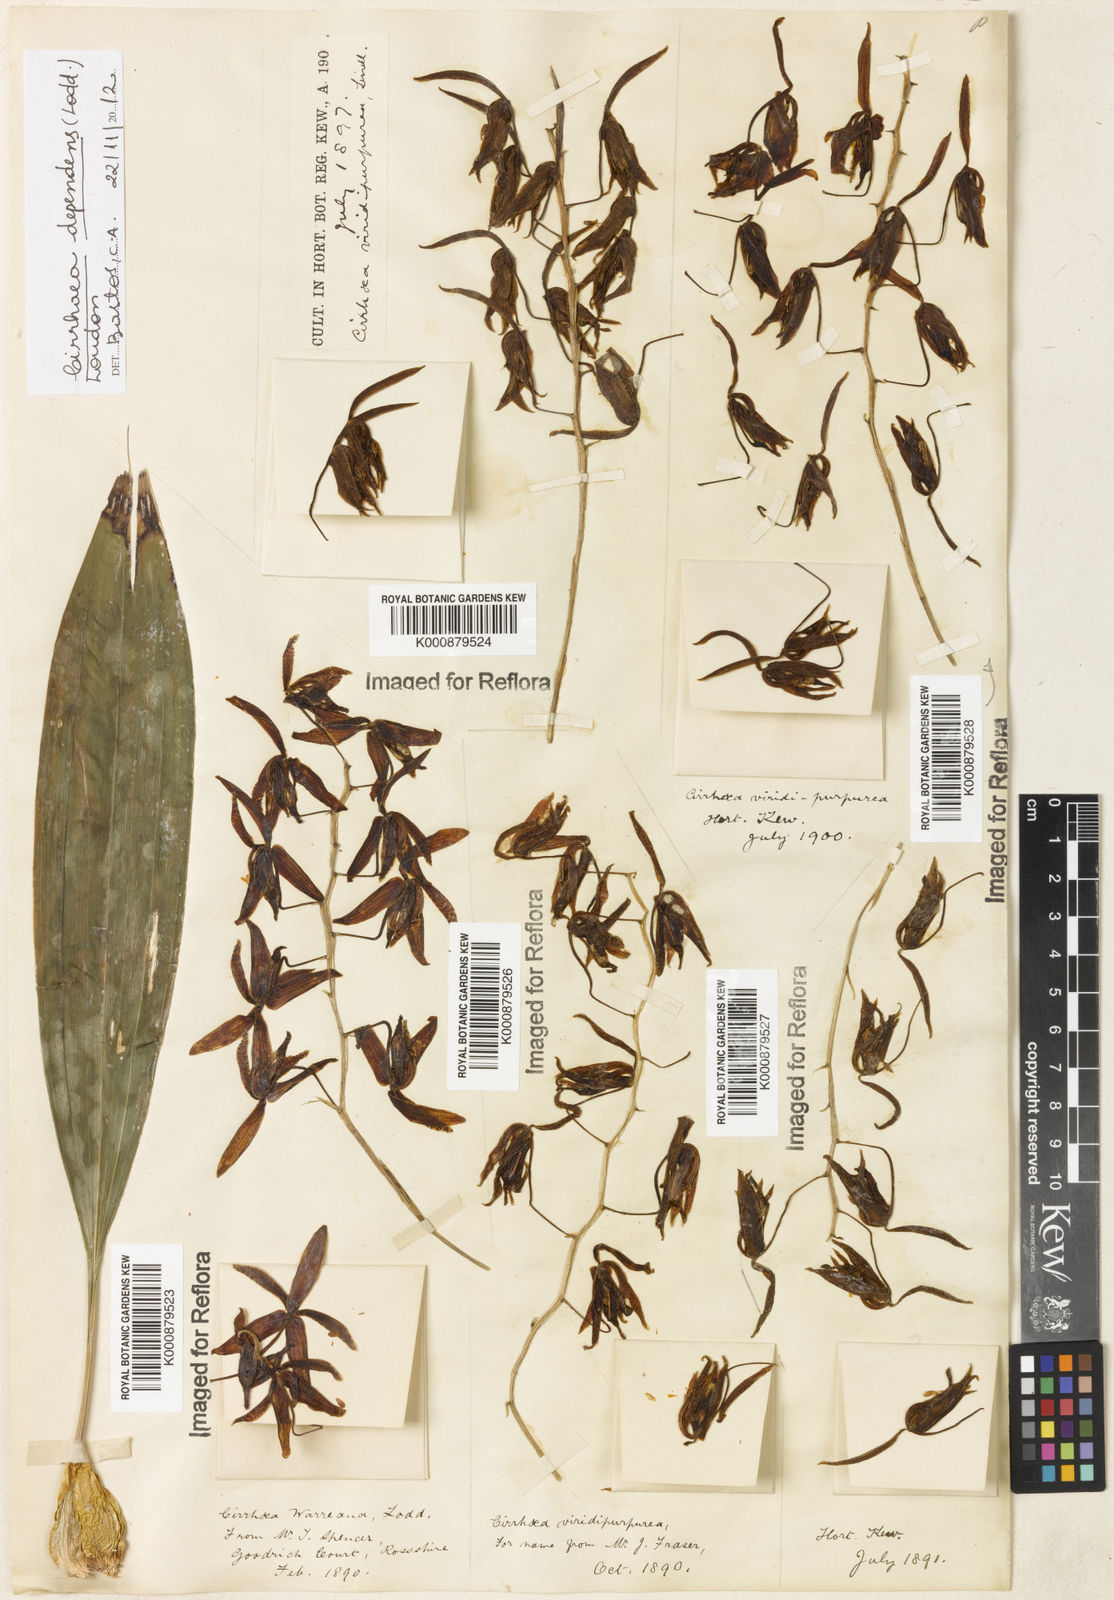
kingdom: Plantae
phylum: Tracheophyta
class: Liliopsida
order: Asparagales
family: Orchidaceae
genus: Cirrhaea
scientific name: Cirrhaea
